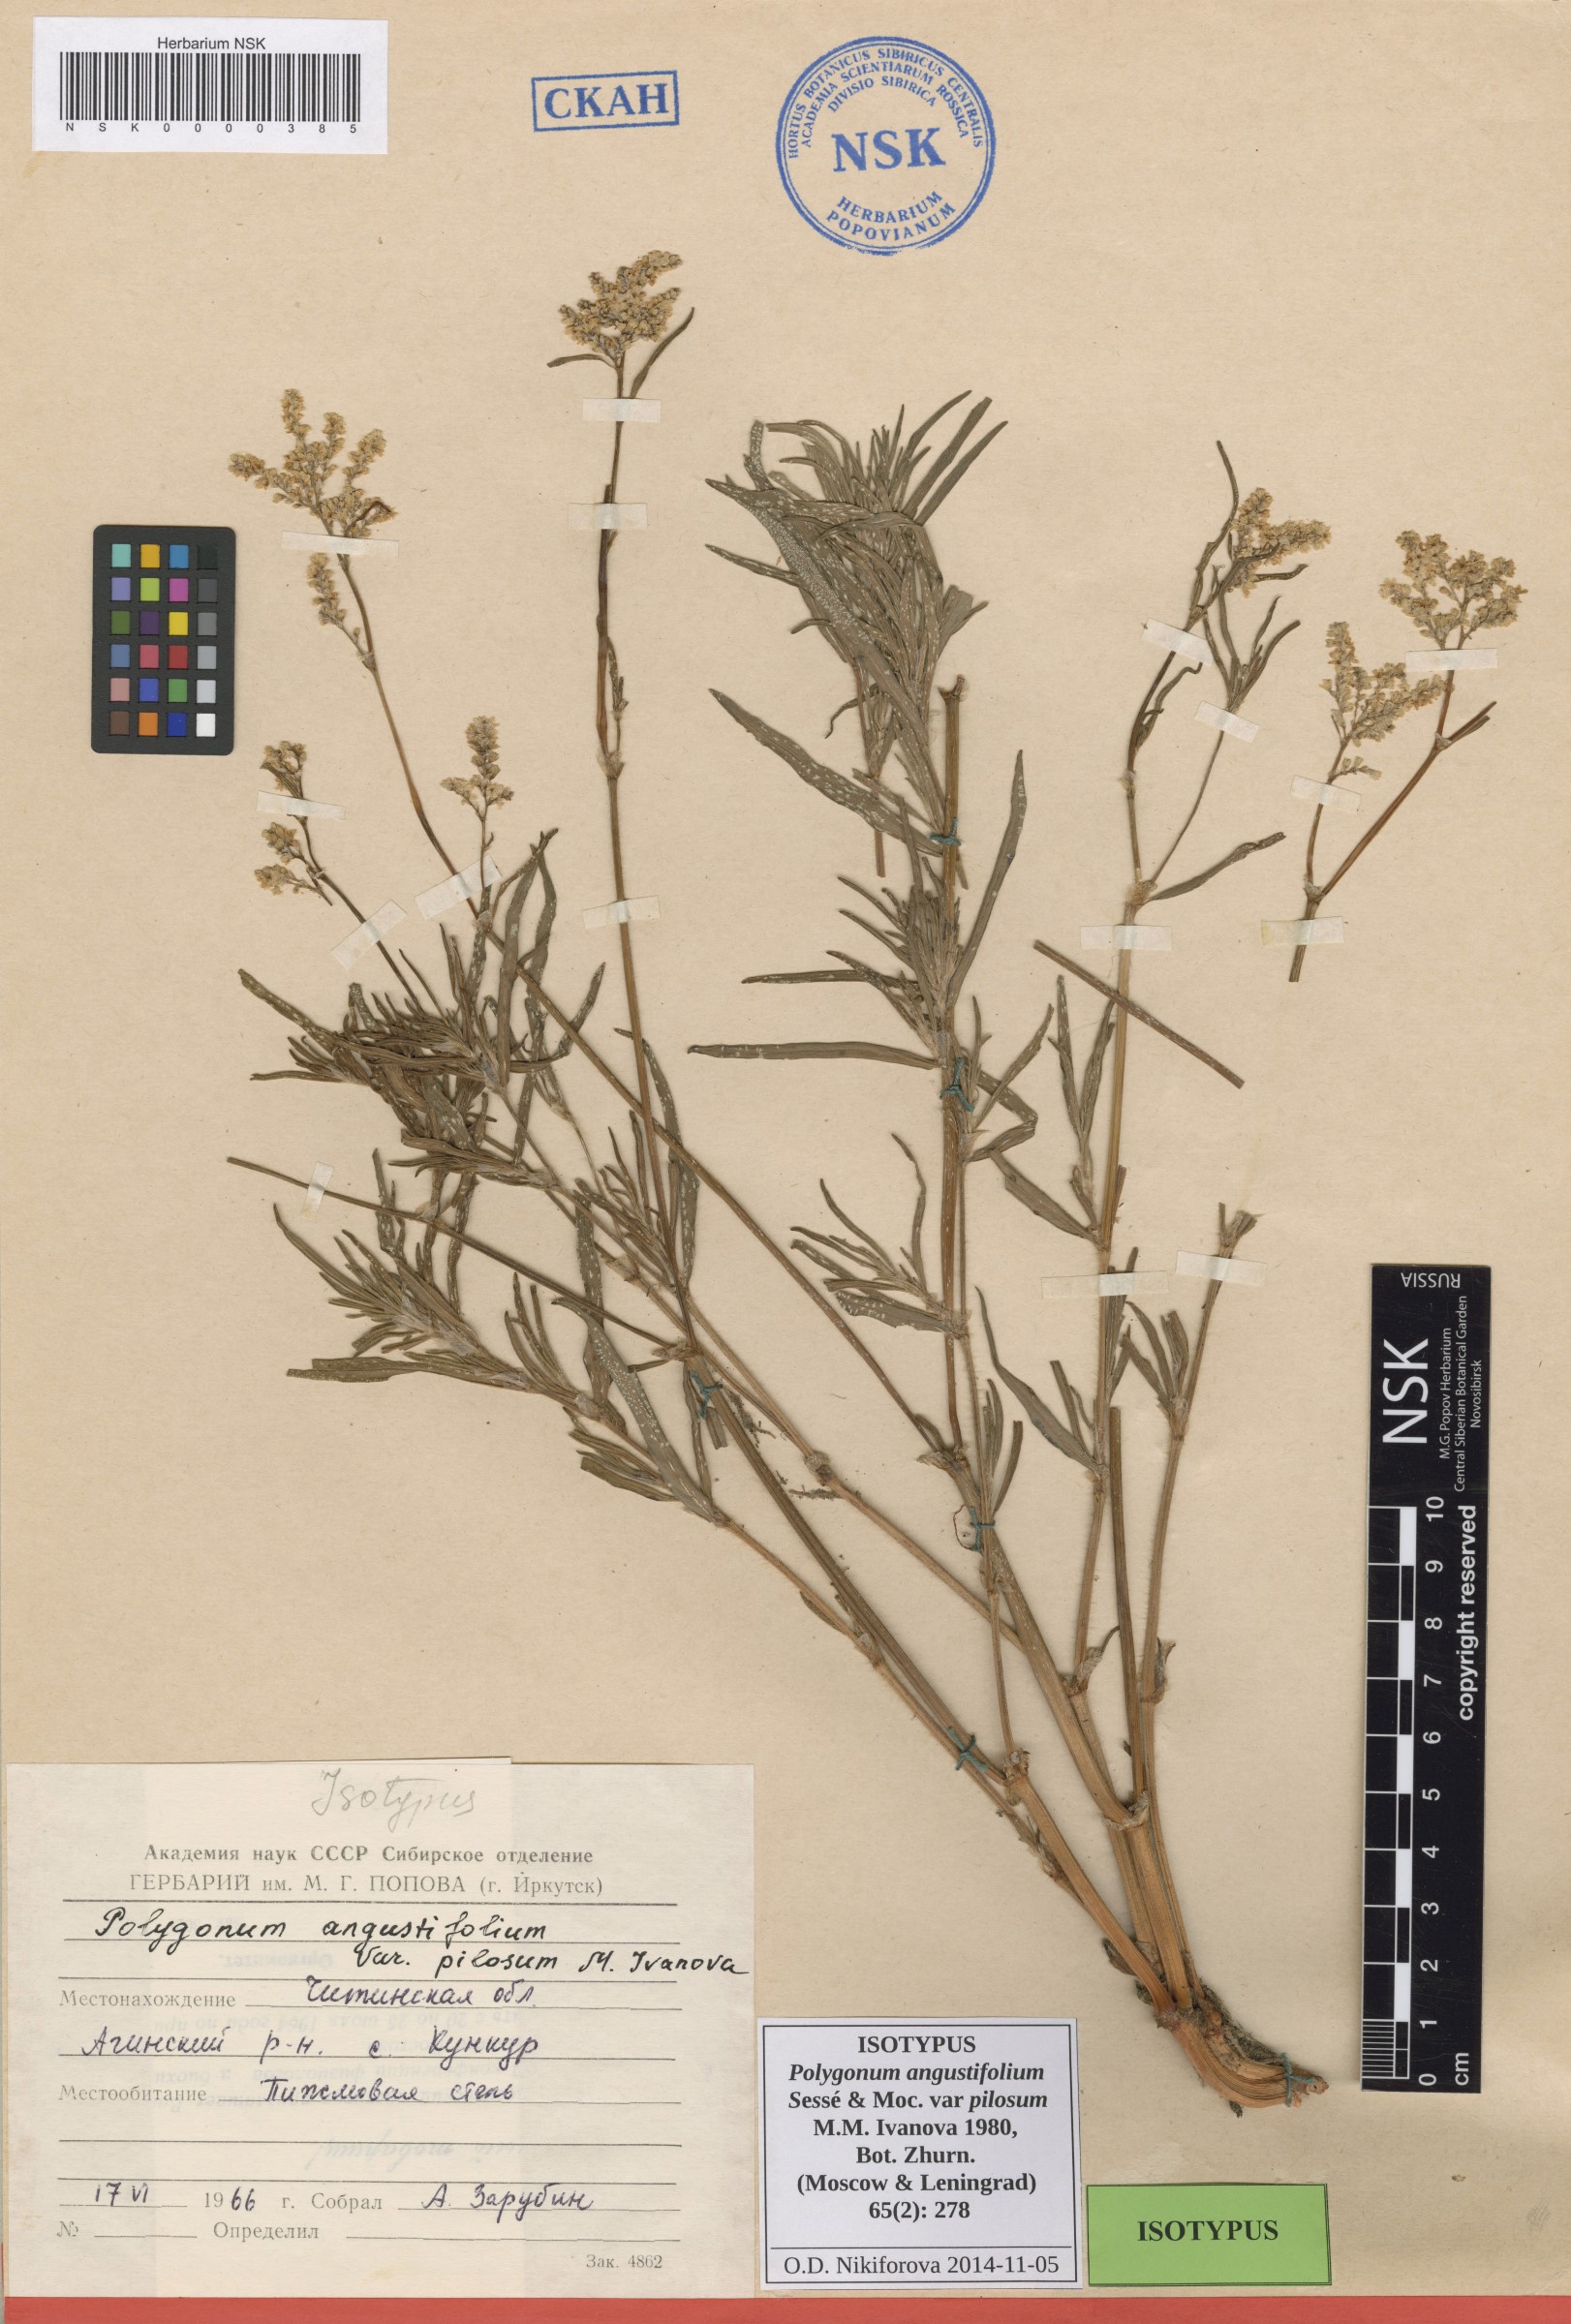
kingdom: Plantae
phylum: Tracheophyta
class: Magnoliopsida
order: Caryophyllales
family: Polygonaceae
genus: Persicaria
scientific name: Persicaria angustifolia
